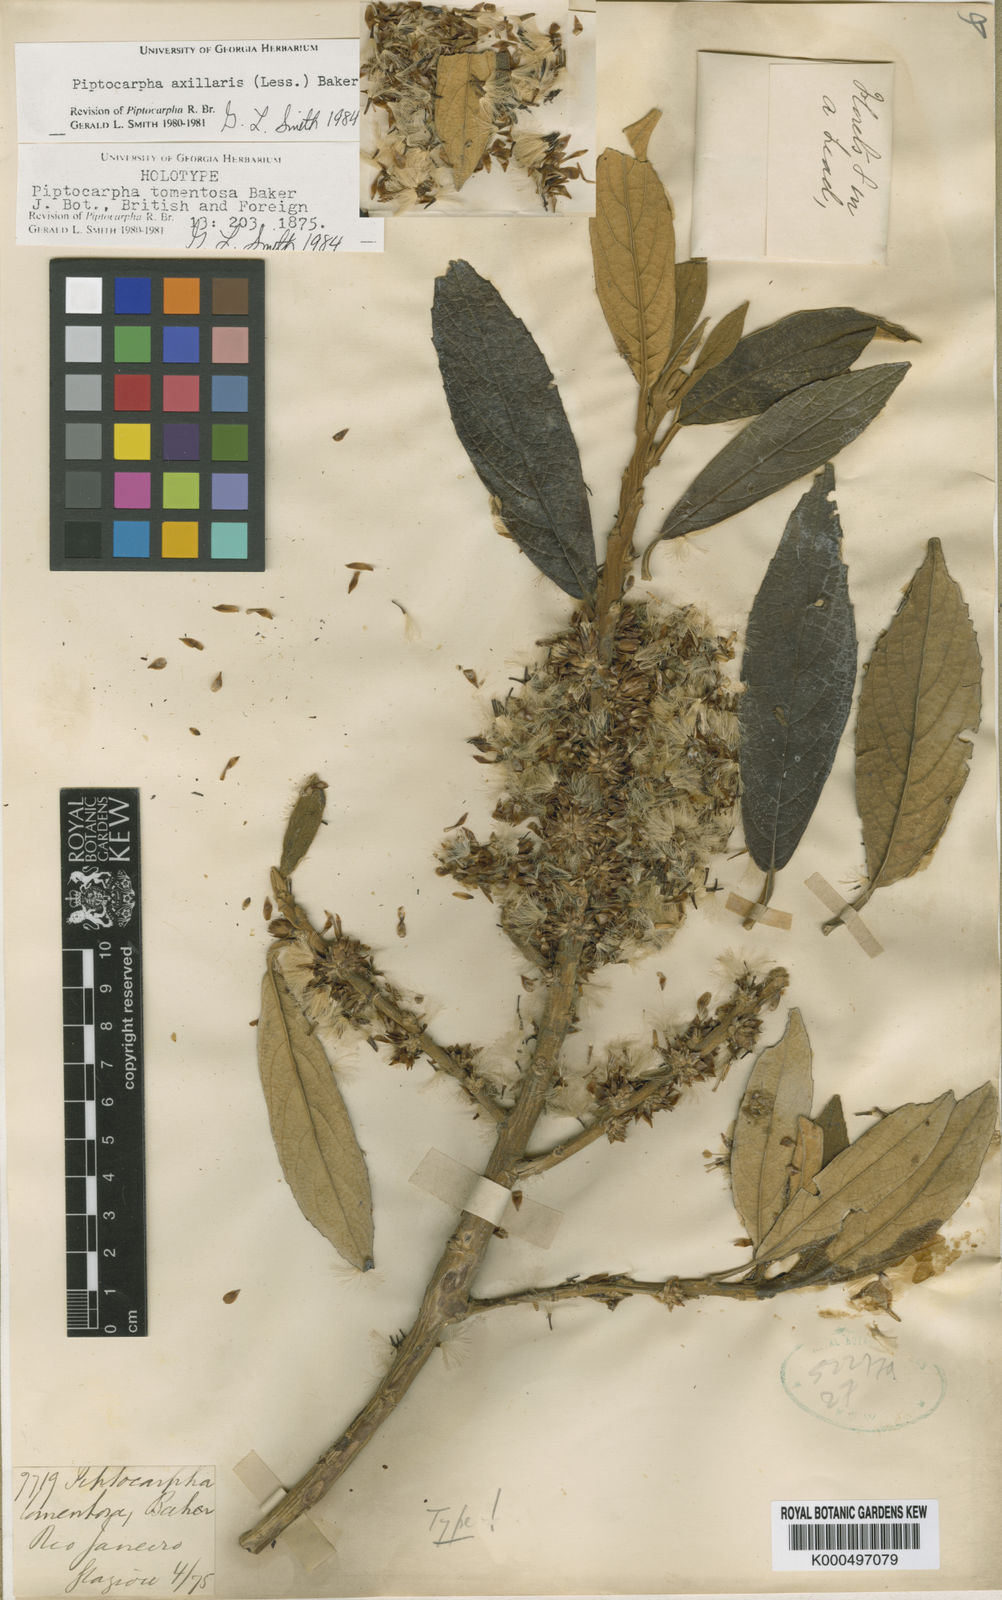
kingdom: Plantae
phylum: Tracheophyta
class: Magnoliopsida
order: Asterales
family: Asteraceae
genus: Piptocarpha
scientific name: Piptocarpha axillaris
